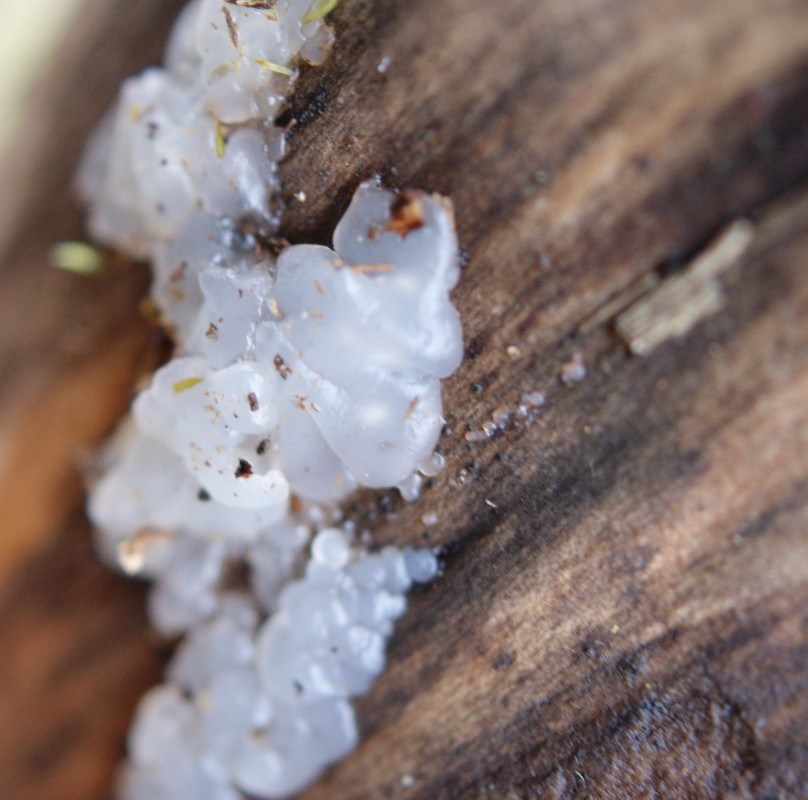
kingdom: Fungi
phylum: Basidiomycota
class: Agaricomycetes
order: Auriculariales
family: Hyaloriaceae
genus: Myxarium
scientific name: Myxarium nucleatum
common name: klar bævretop
